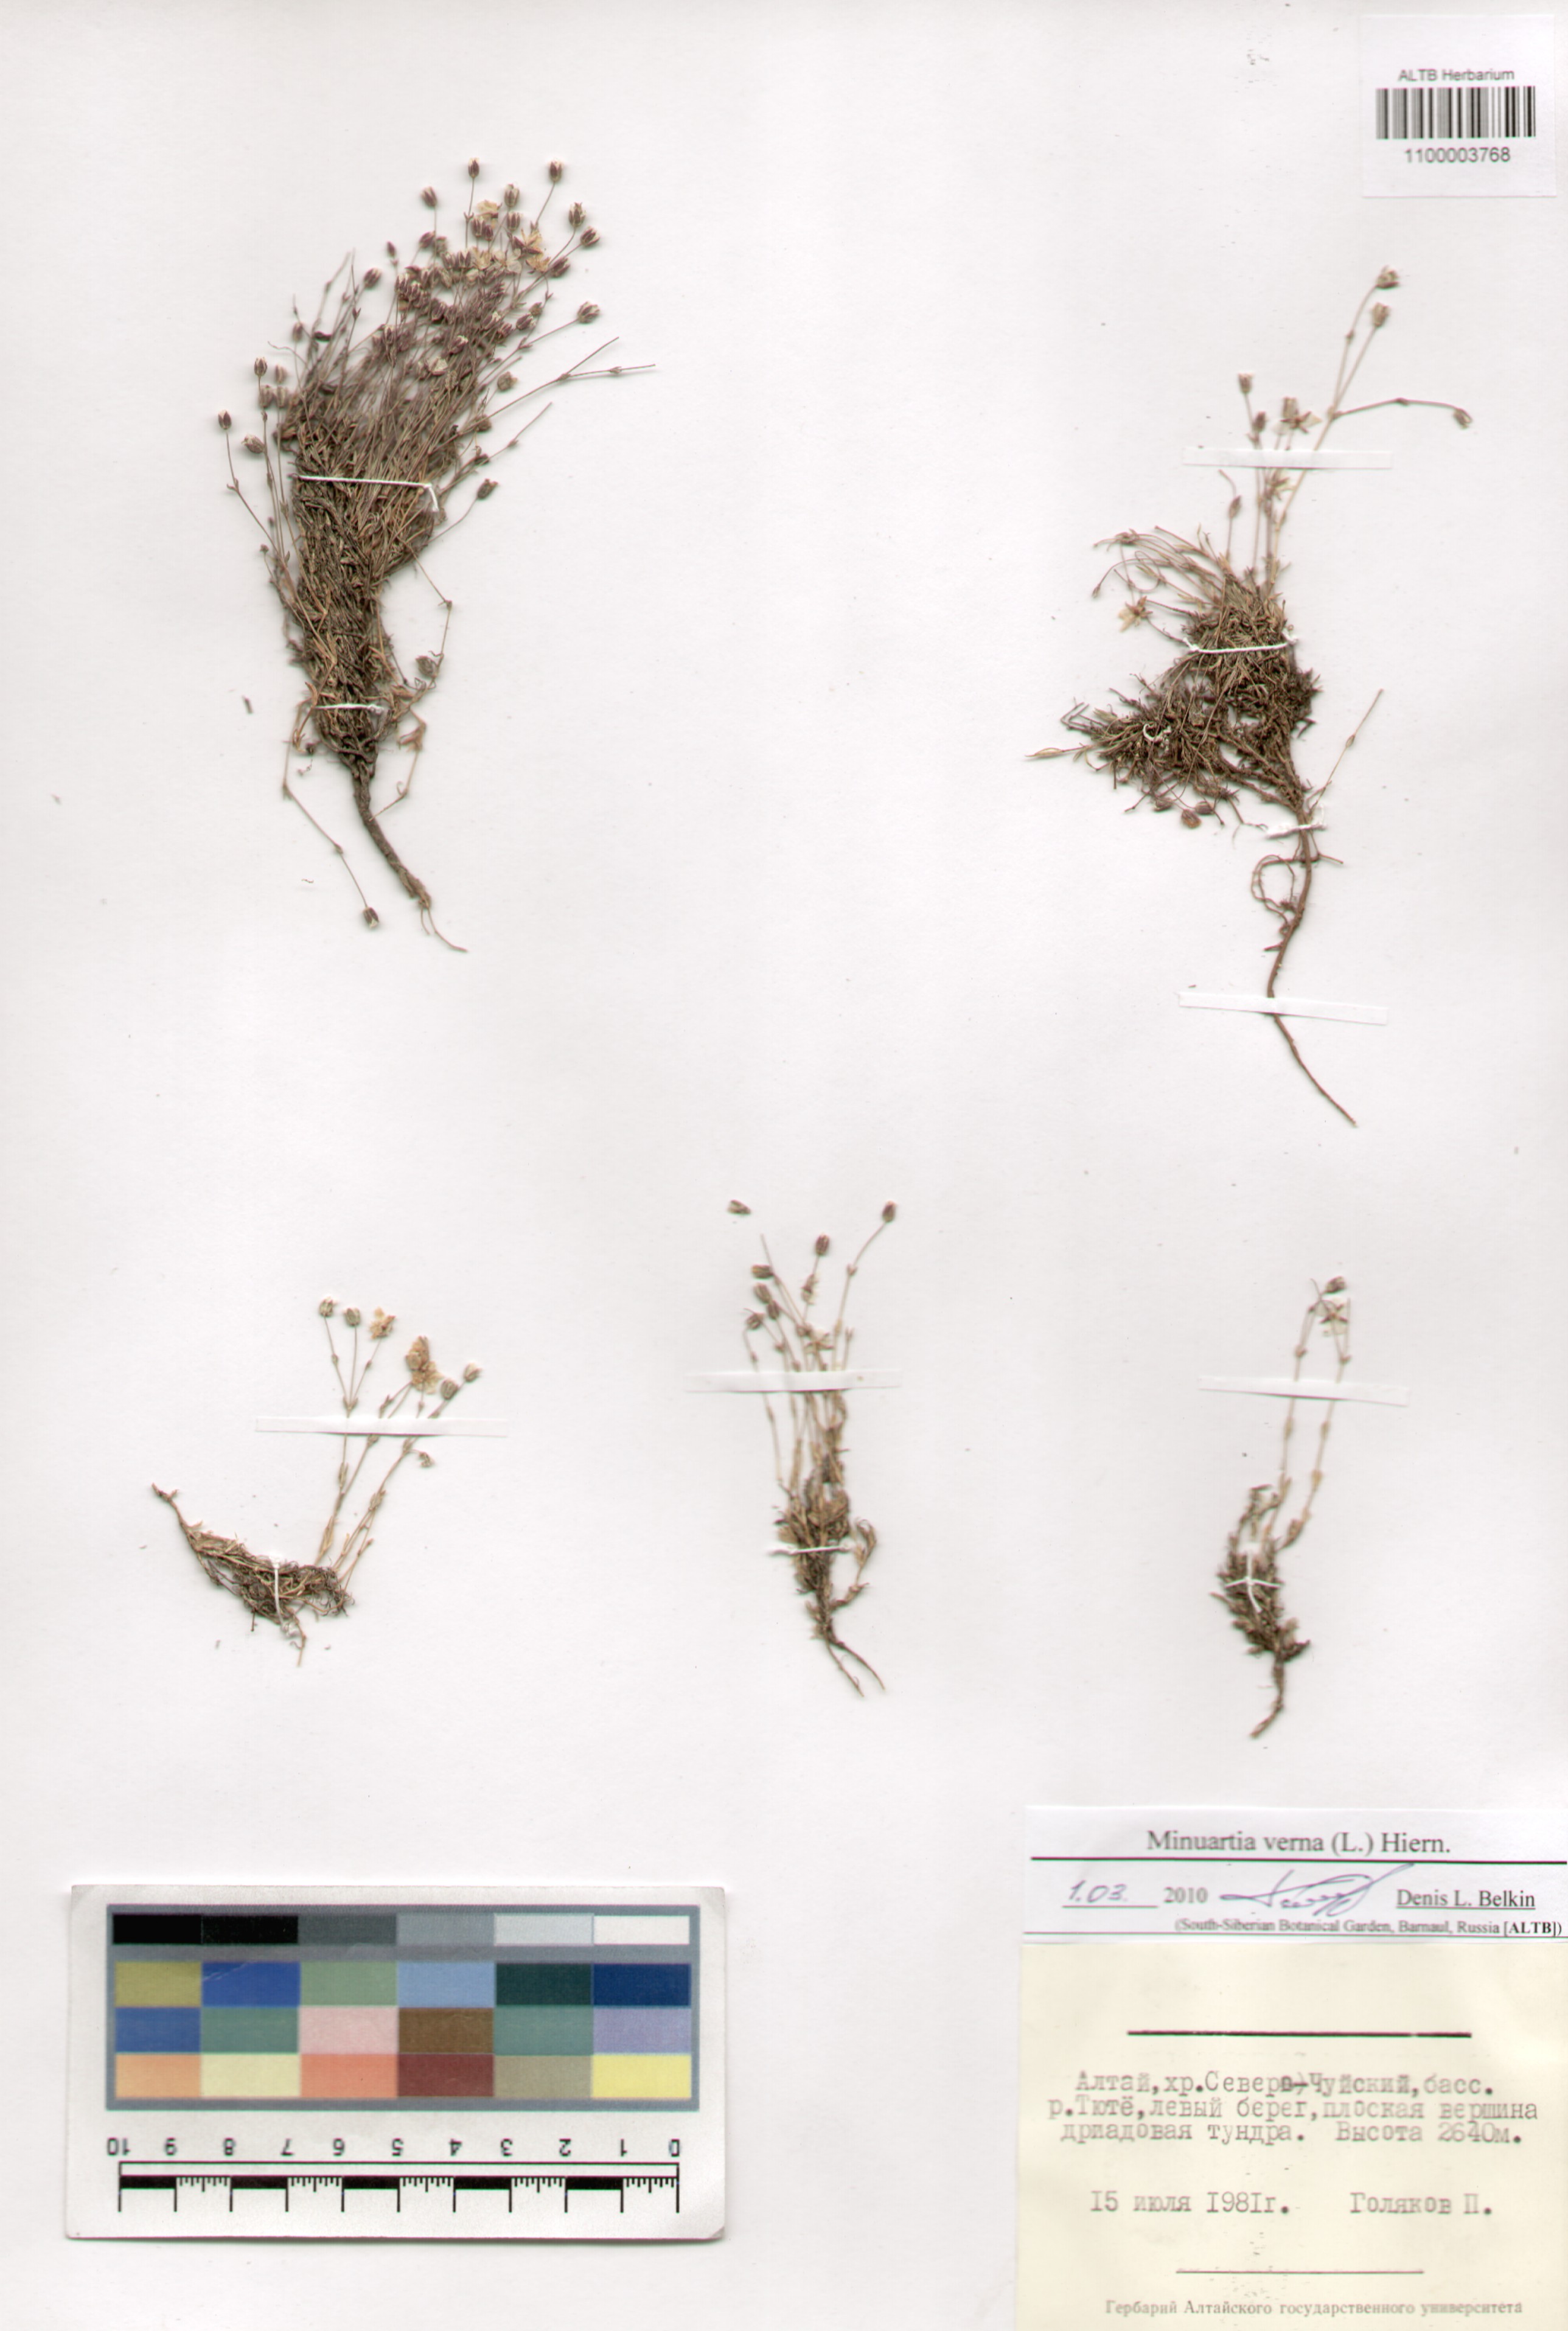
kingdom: Plantae
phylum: Tracheophyta
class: Magnoliopsida
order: Caryophyllales
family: Caryophyllaceae
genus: Sabulina
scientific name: Sabulina verna
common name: Spring sandwort
